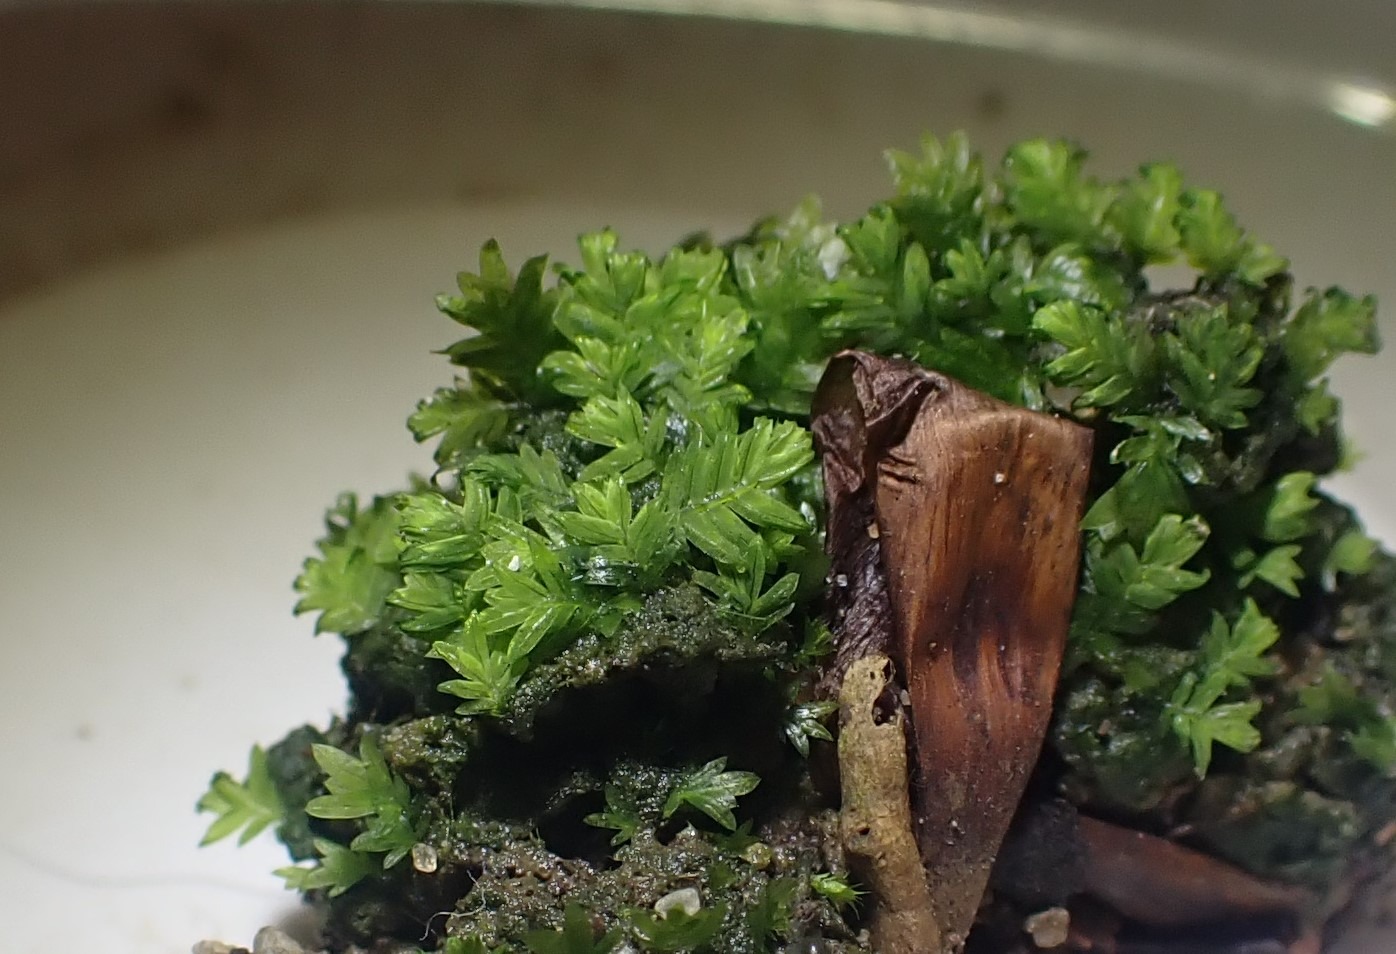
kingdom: Plantae
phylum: Bryophyta
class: Bryopsida
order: Dicranales
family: Fissidentaceae
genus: Fissidens
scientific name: Fissidens taxifolius
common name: Taksbladet rademos
